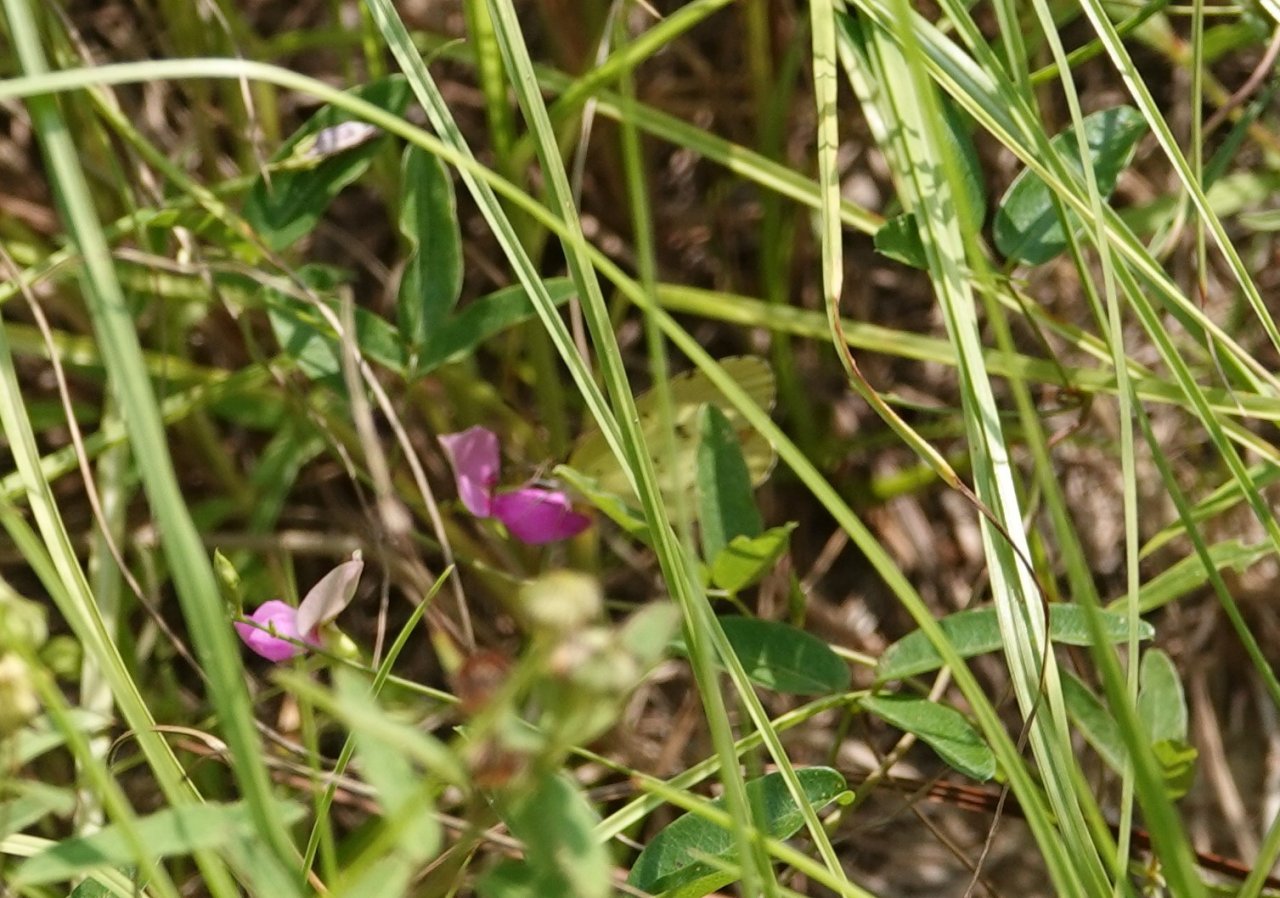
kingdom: Animalia
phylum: Arthropoda
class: Insecta
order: Lepidoptera
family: Pieridae
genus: Pyrisitia
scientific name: Pyrisitia lisa
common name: Little Yellow
